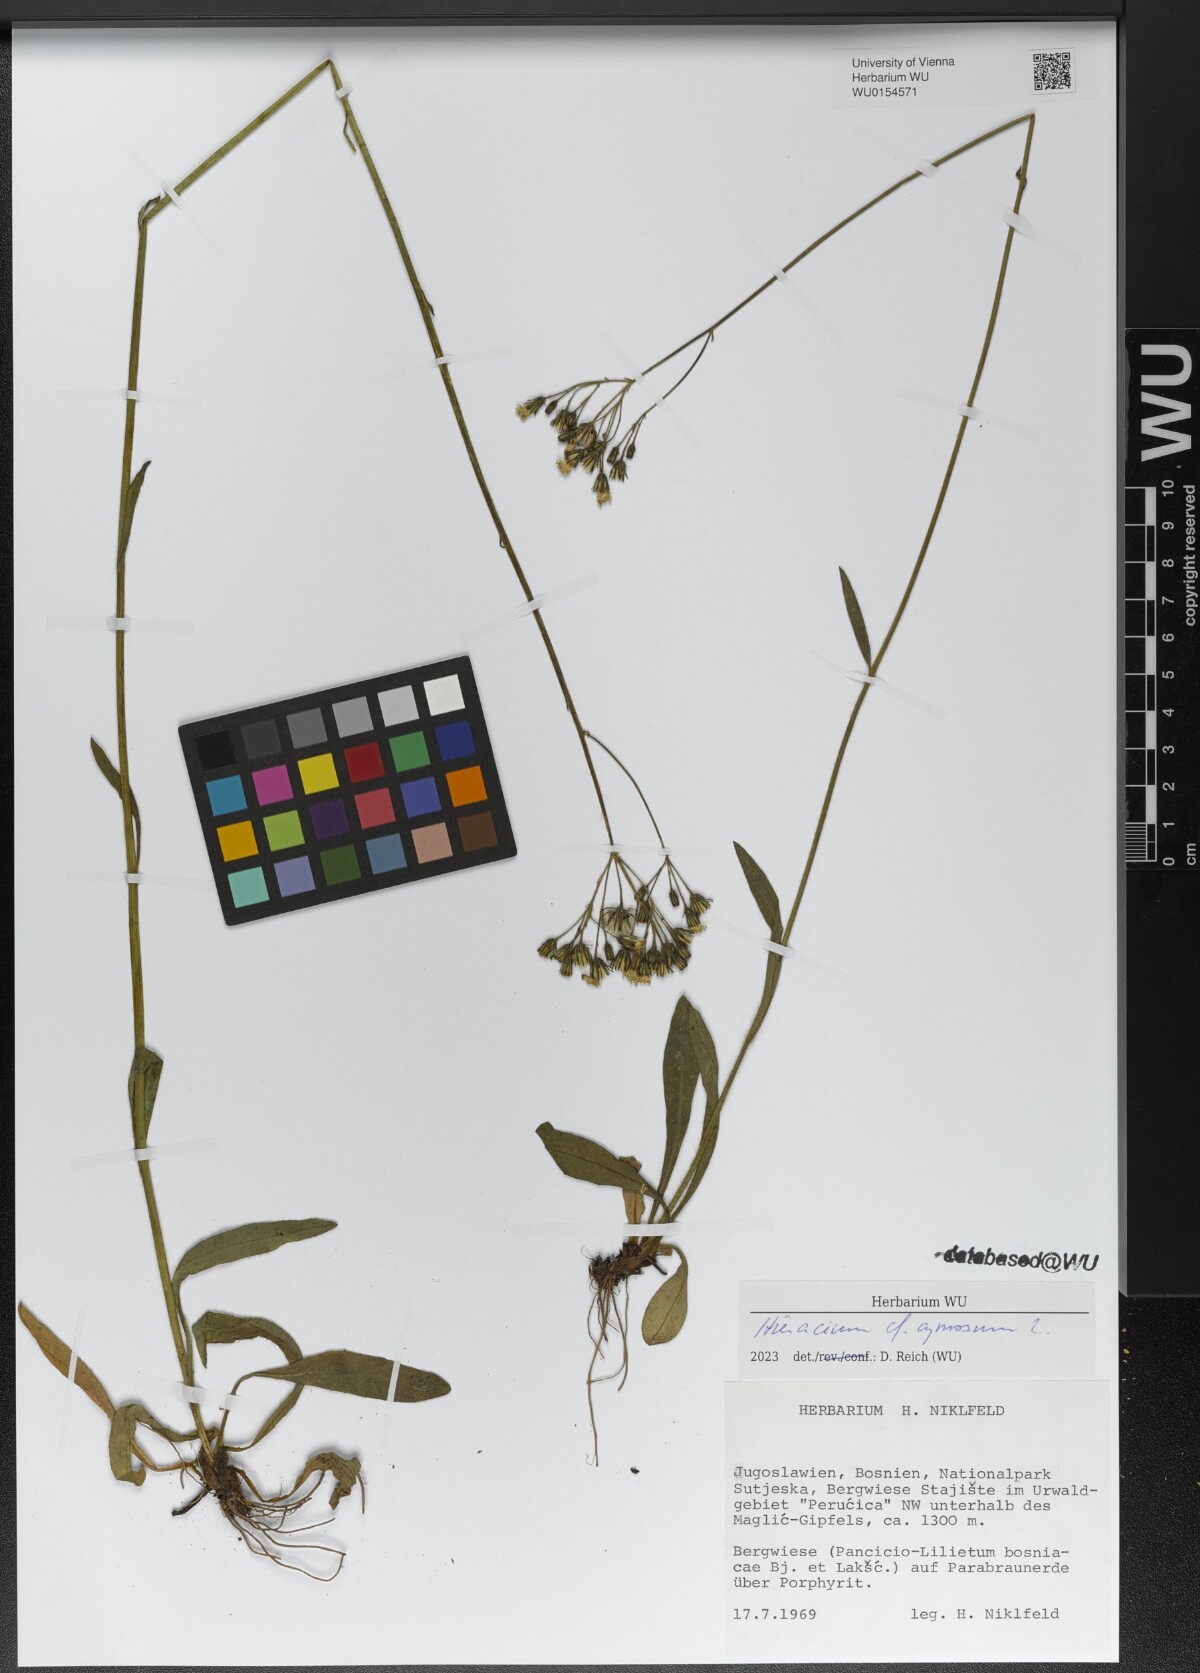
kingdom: Plantae
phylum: Tracheophyta
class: Magnoliopsida
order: Asterales
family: Asteraceae
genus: Pilosella
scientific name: Pilosella cymosa
